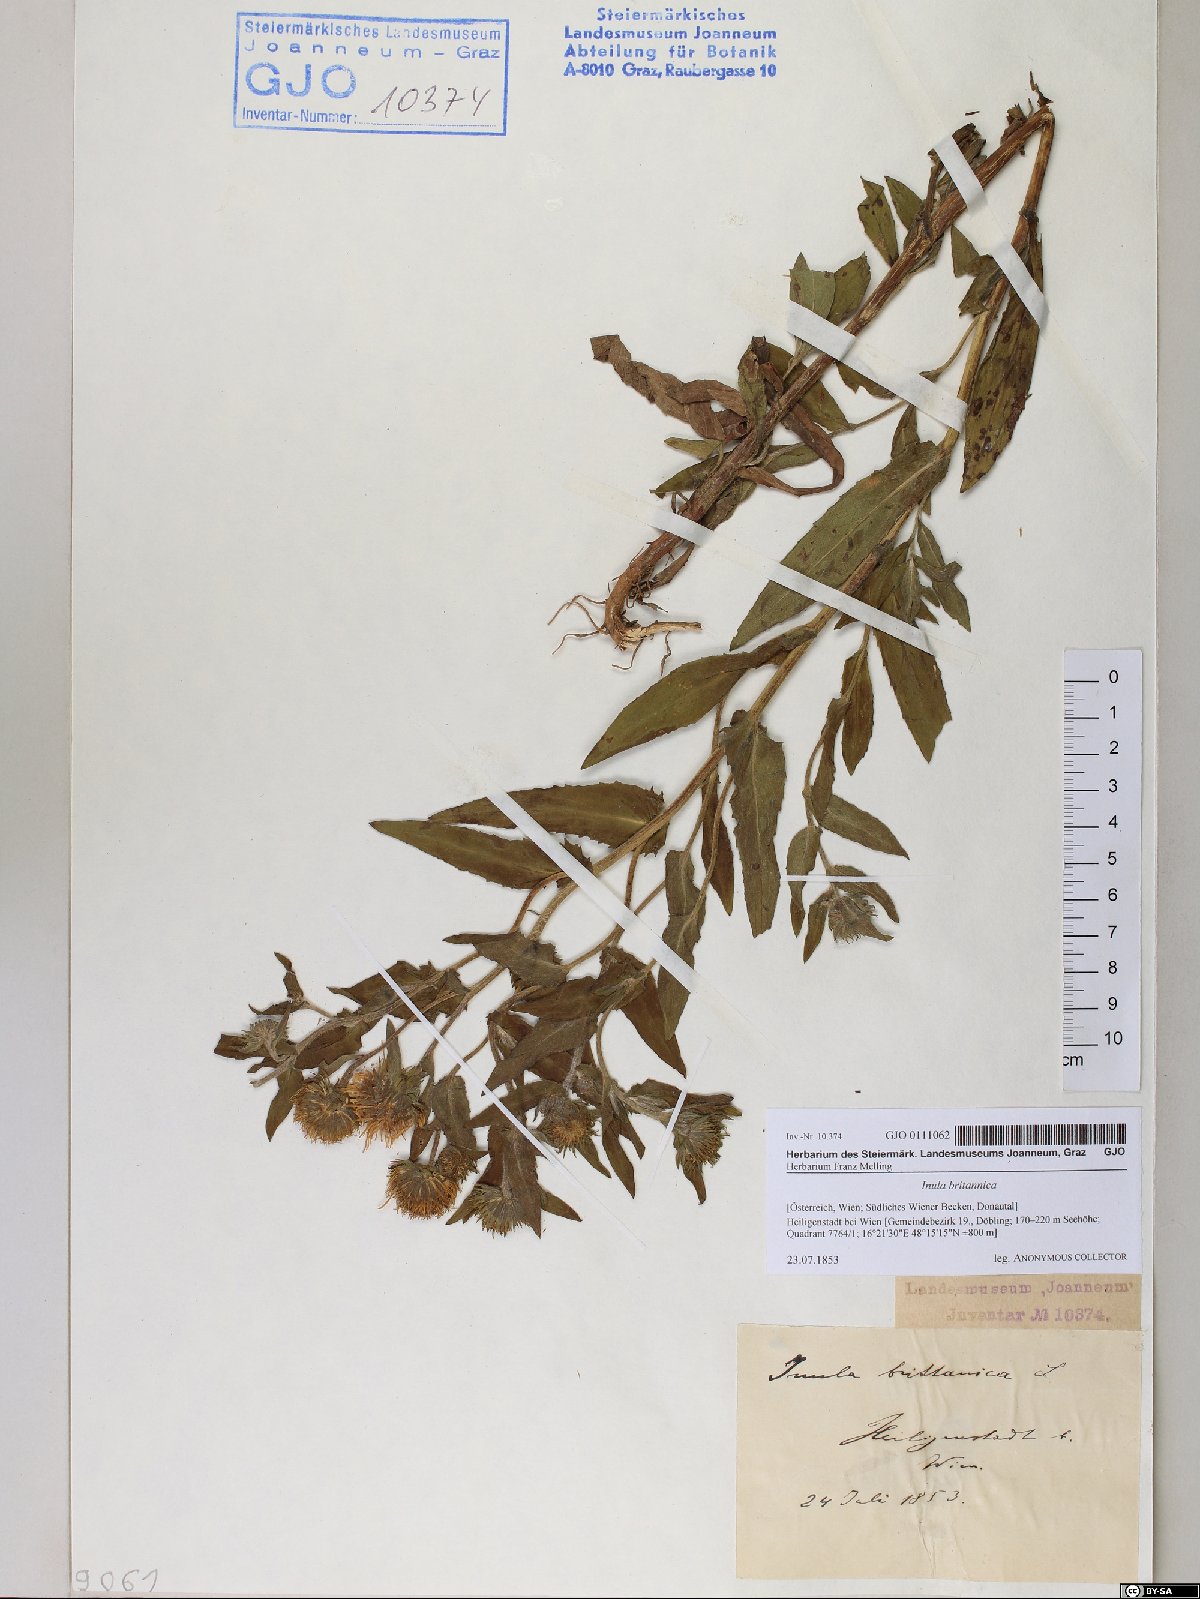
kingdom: Plantae
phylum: Tracheophyta
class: Magnoliopsida
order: Asterales
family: Asteraceae
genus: Pentanema
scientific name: Pentanema britannicum
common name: British elecampane
